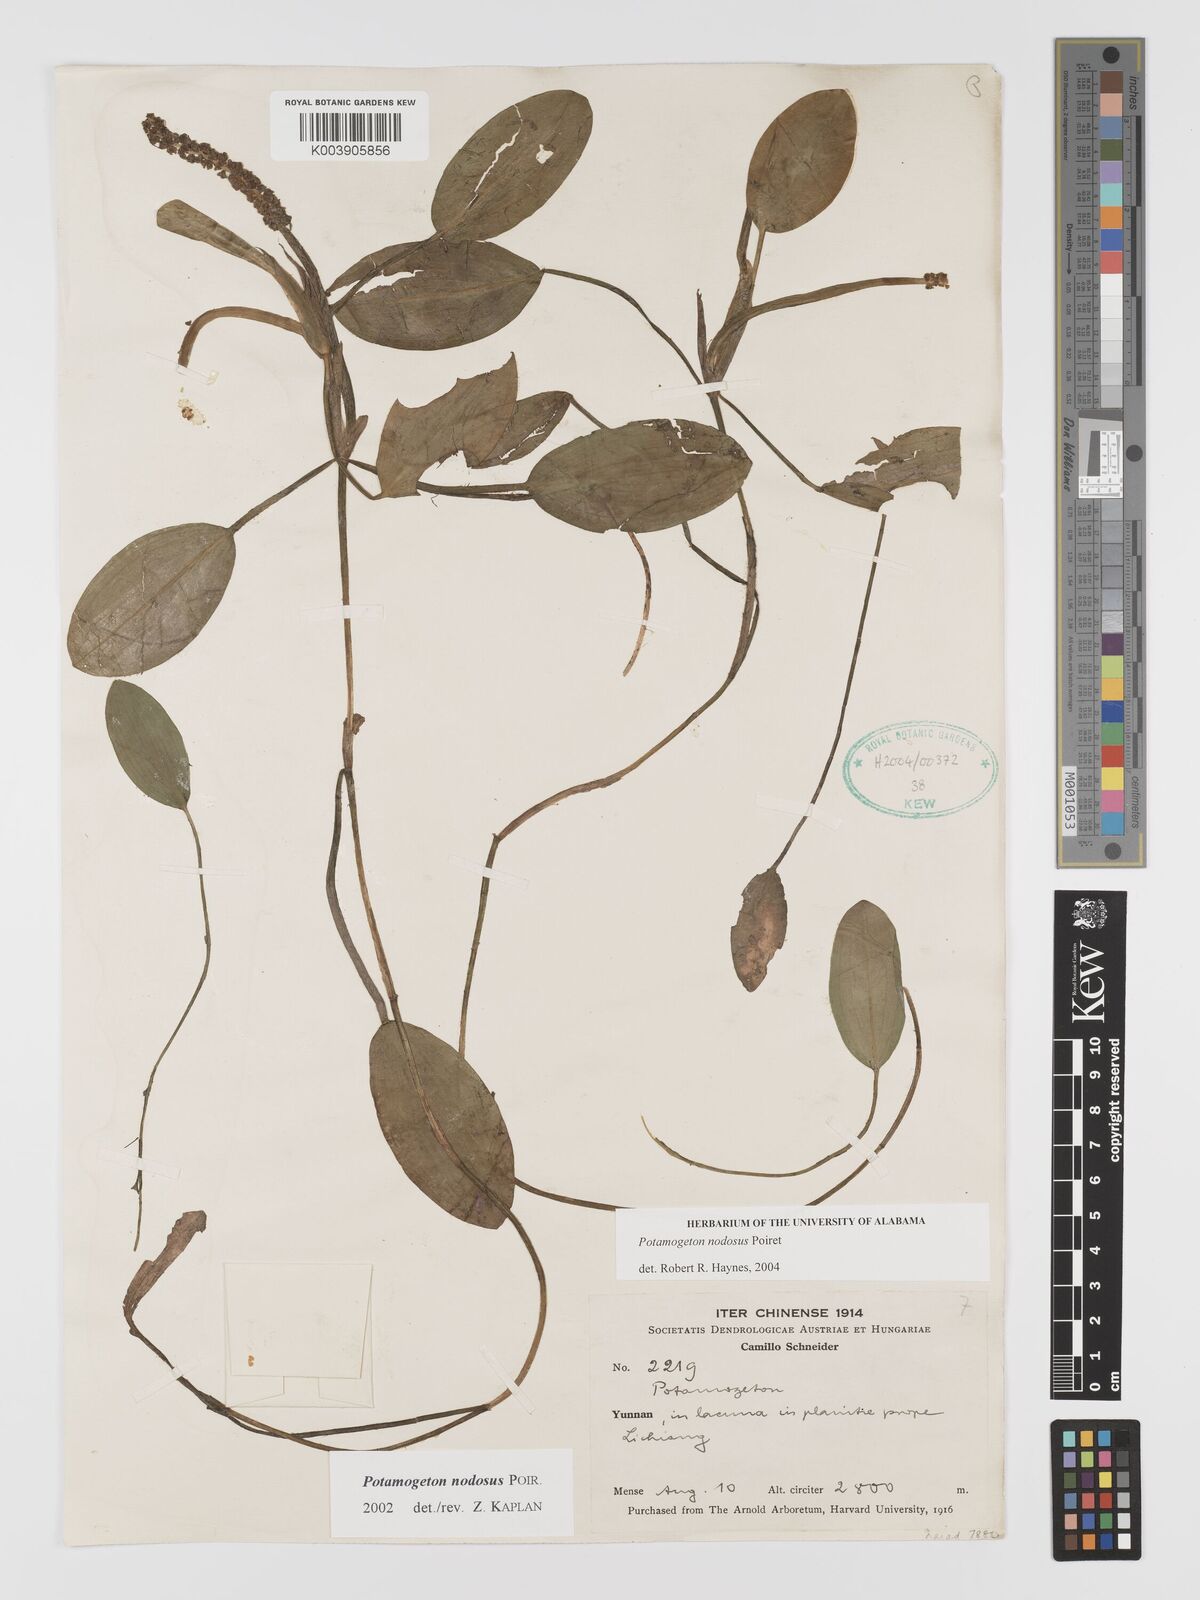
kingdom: Plantae
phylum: Tracheophyta
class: Liliopsida
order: Alismatales
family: Potamogetonaceae
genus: Potamogeton
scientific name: Potamogeton nodosus
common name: Loddon pondweed
